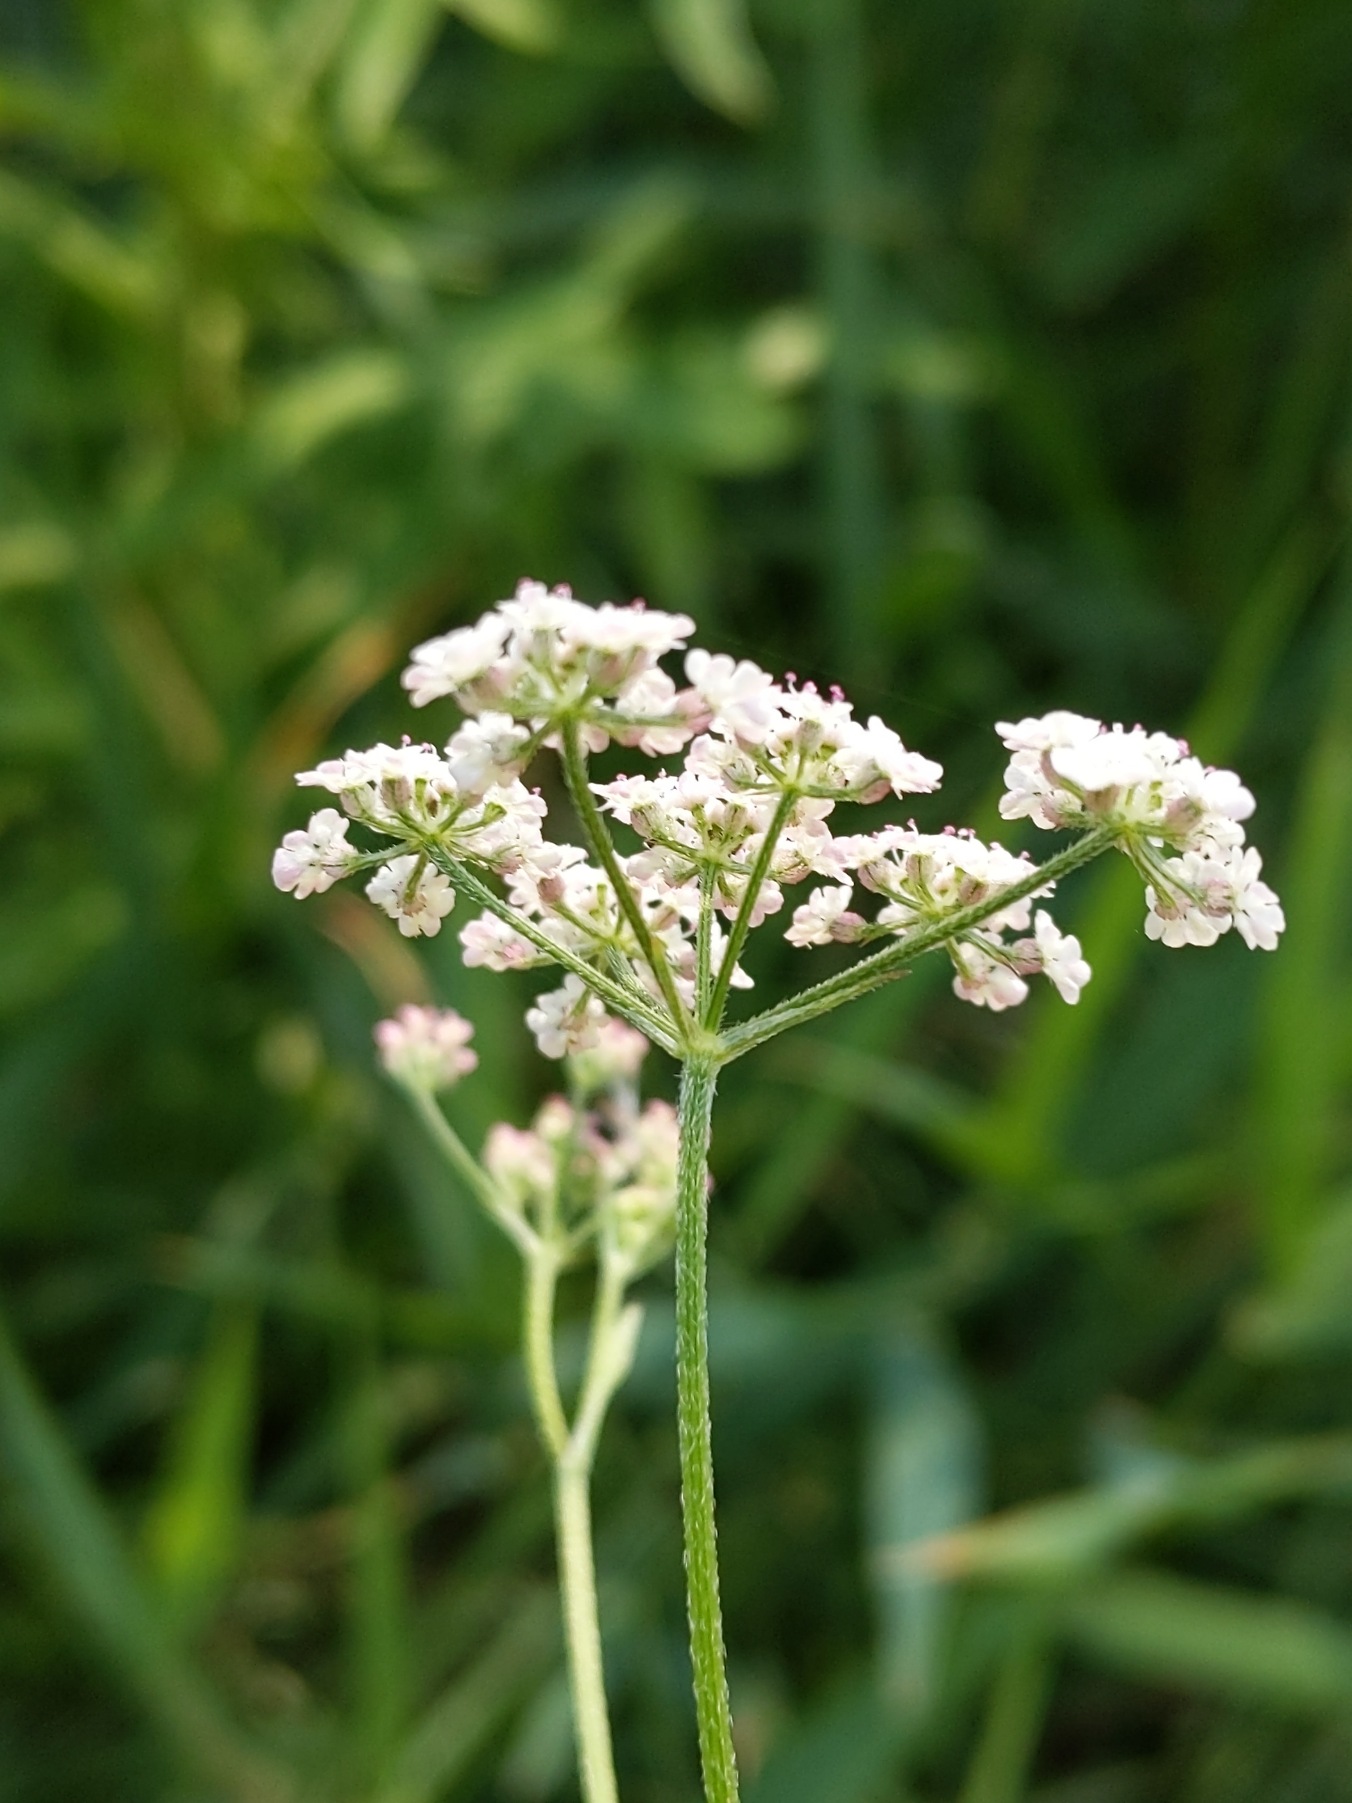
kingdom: Plantae
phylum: Tracheophyta
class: Magnoliopsida
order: Apiales
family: Apiaceae
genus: Torilis
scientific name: Torilis japonica
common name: Hvas randfrø
